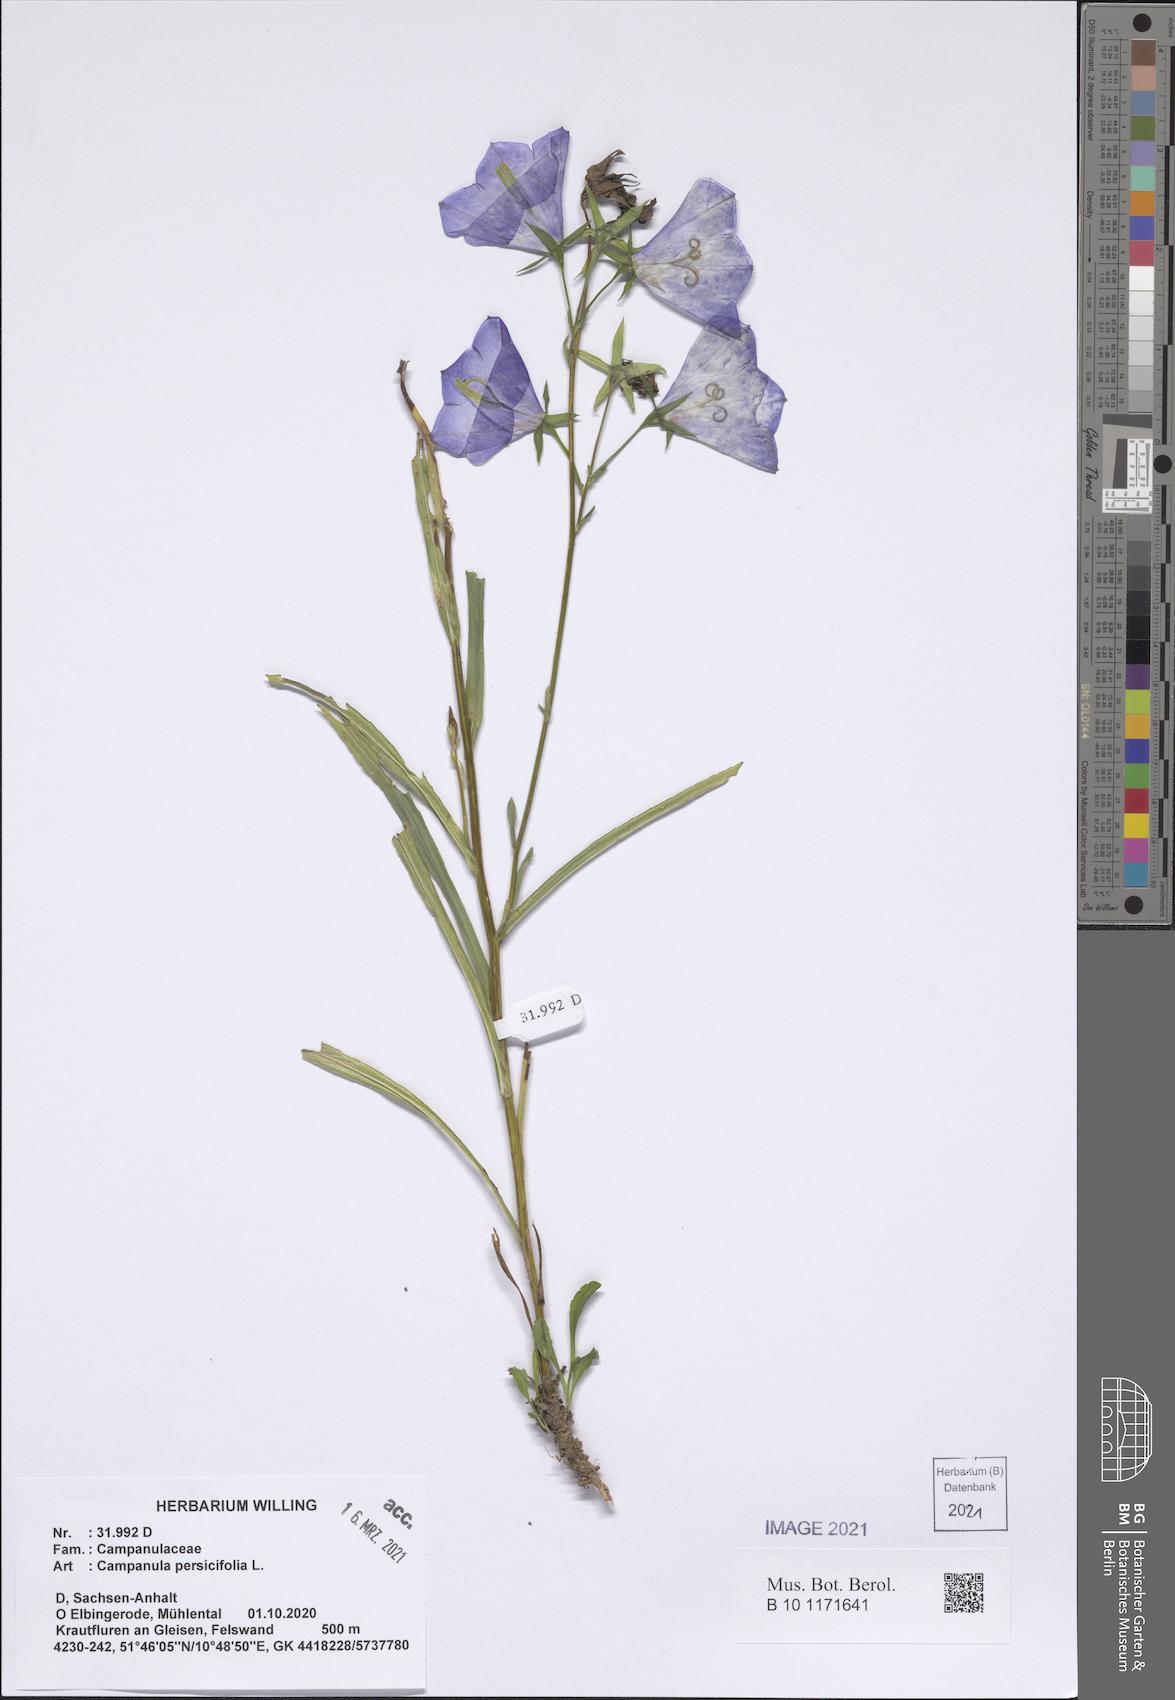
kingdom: Plantae
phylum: Tracheophyta
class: Magnoliopsida
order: Asterales
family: Campanulaceae
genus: Campanula
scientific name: Campanula persicifolia
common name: Peach-leaved bellflower
